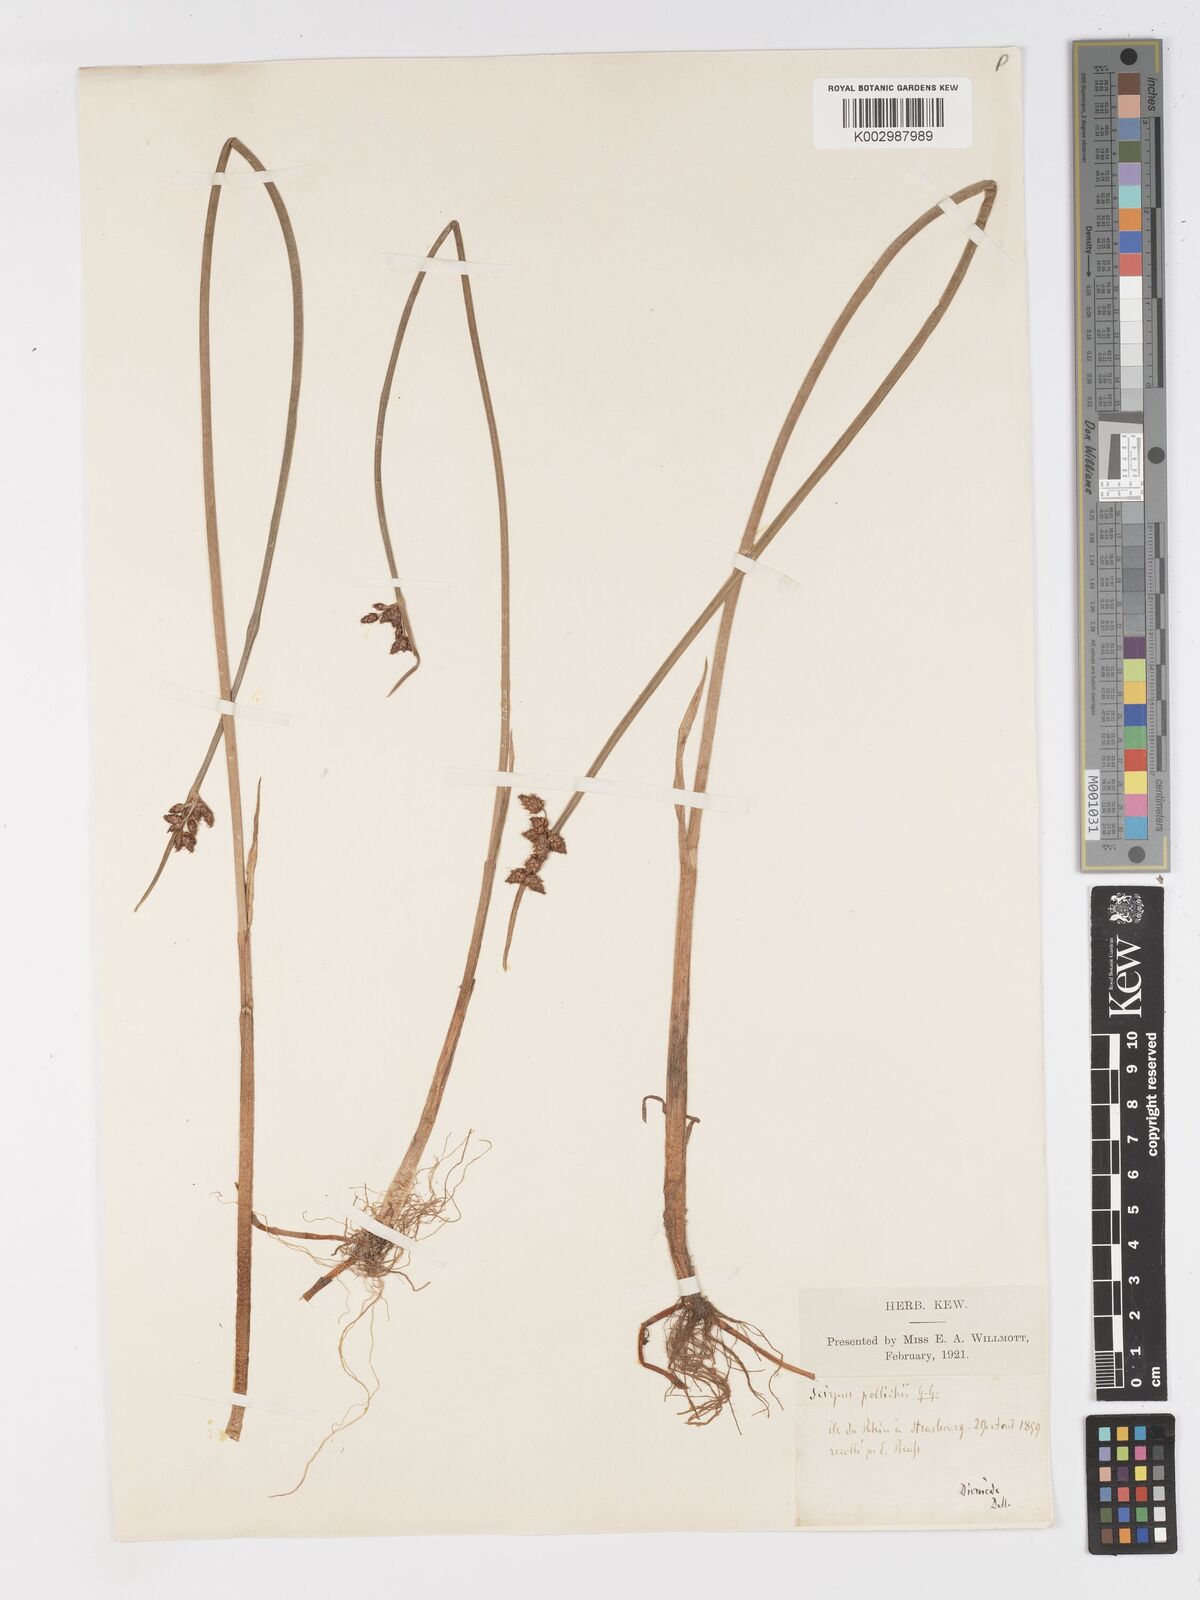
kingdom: Plantae
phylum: Tracheophyta
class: Liliopsida
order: Poales
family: Cyperaceae
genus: Schoenoplectus
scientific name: Schoenoplectus triqueter
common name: Triangular club-rush
